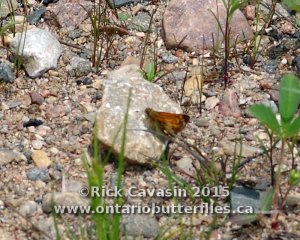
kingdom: Animalia
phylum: Arthropoda
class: Insecta
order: Lepidoptera
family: Hesperiidae
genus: Lon
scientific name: Lon hobomok
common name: Hobomok Skipper
